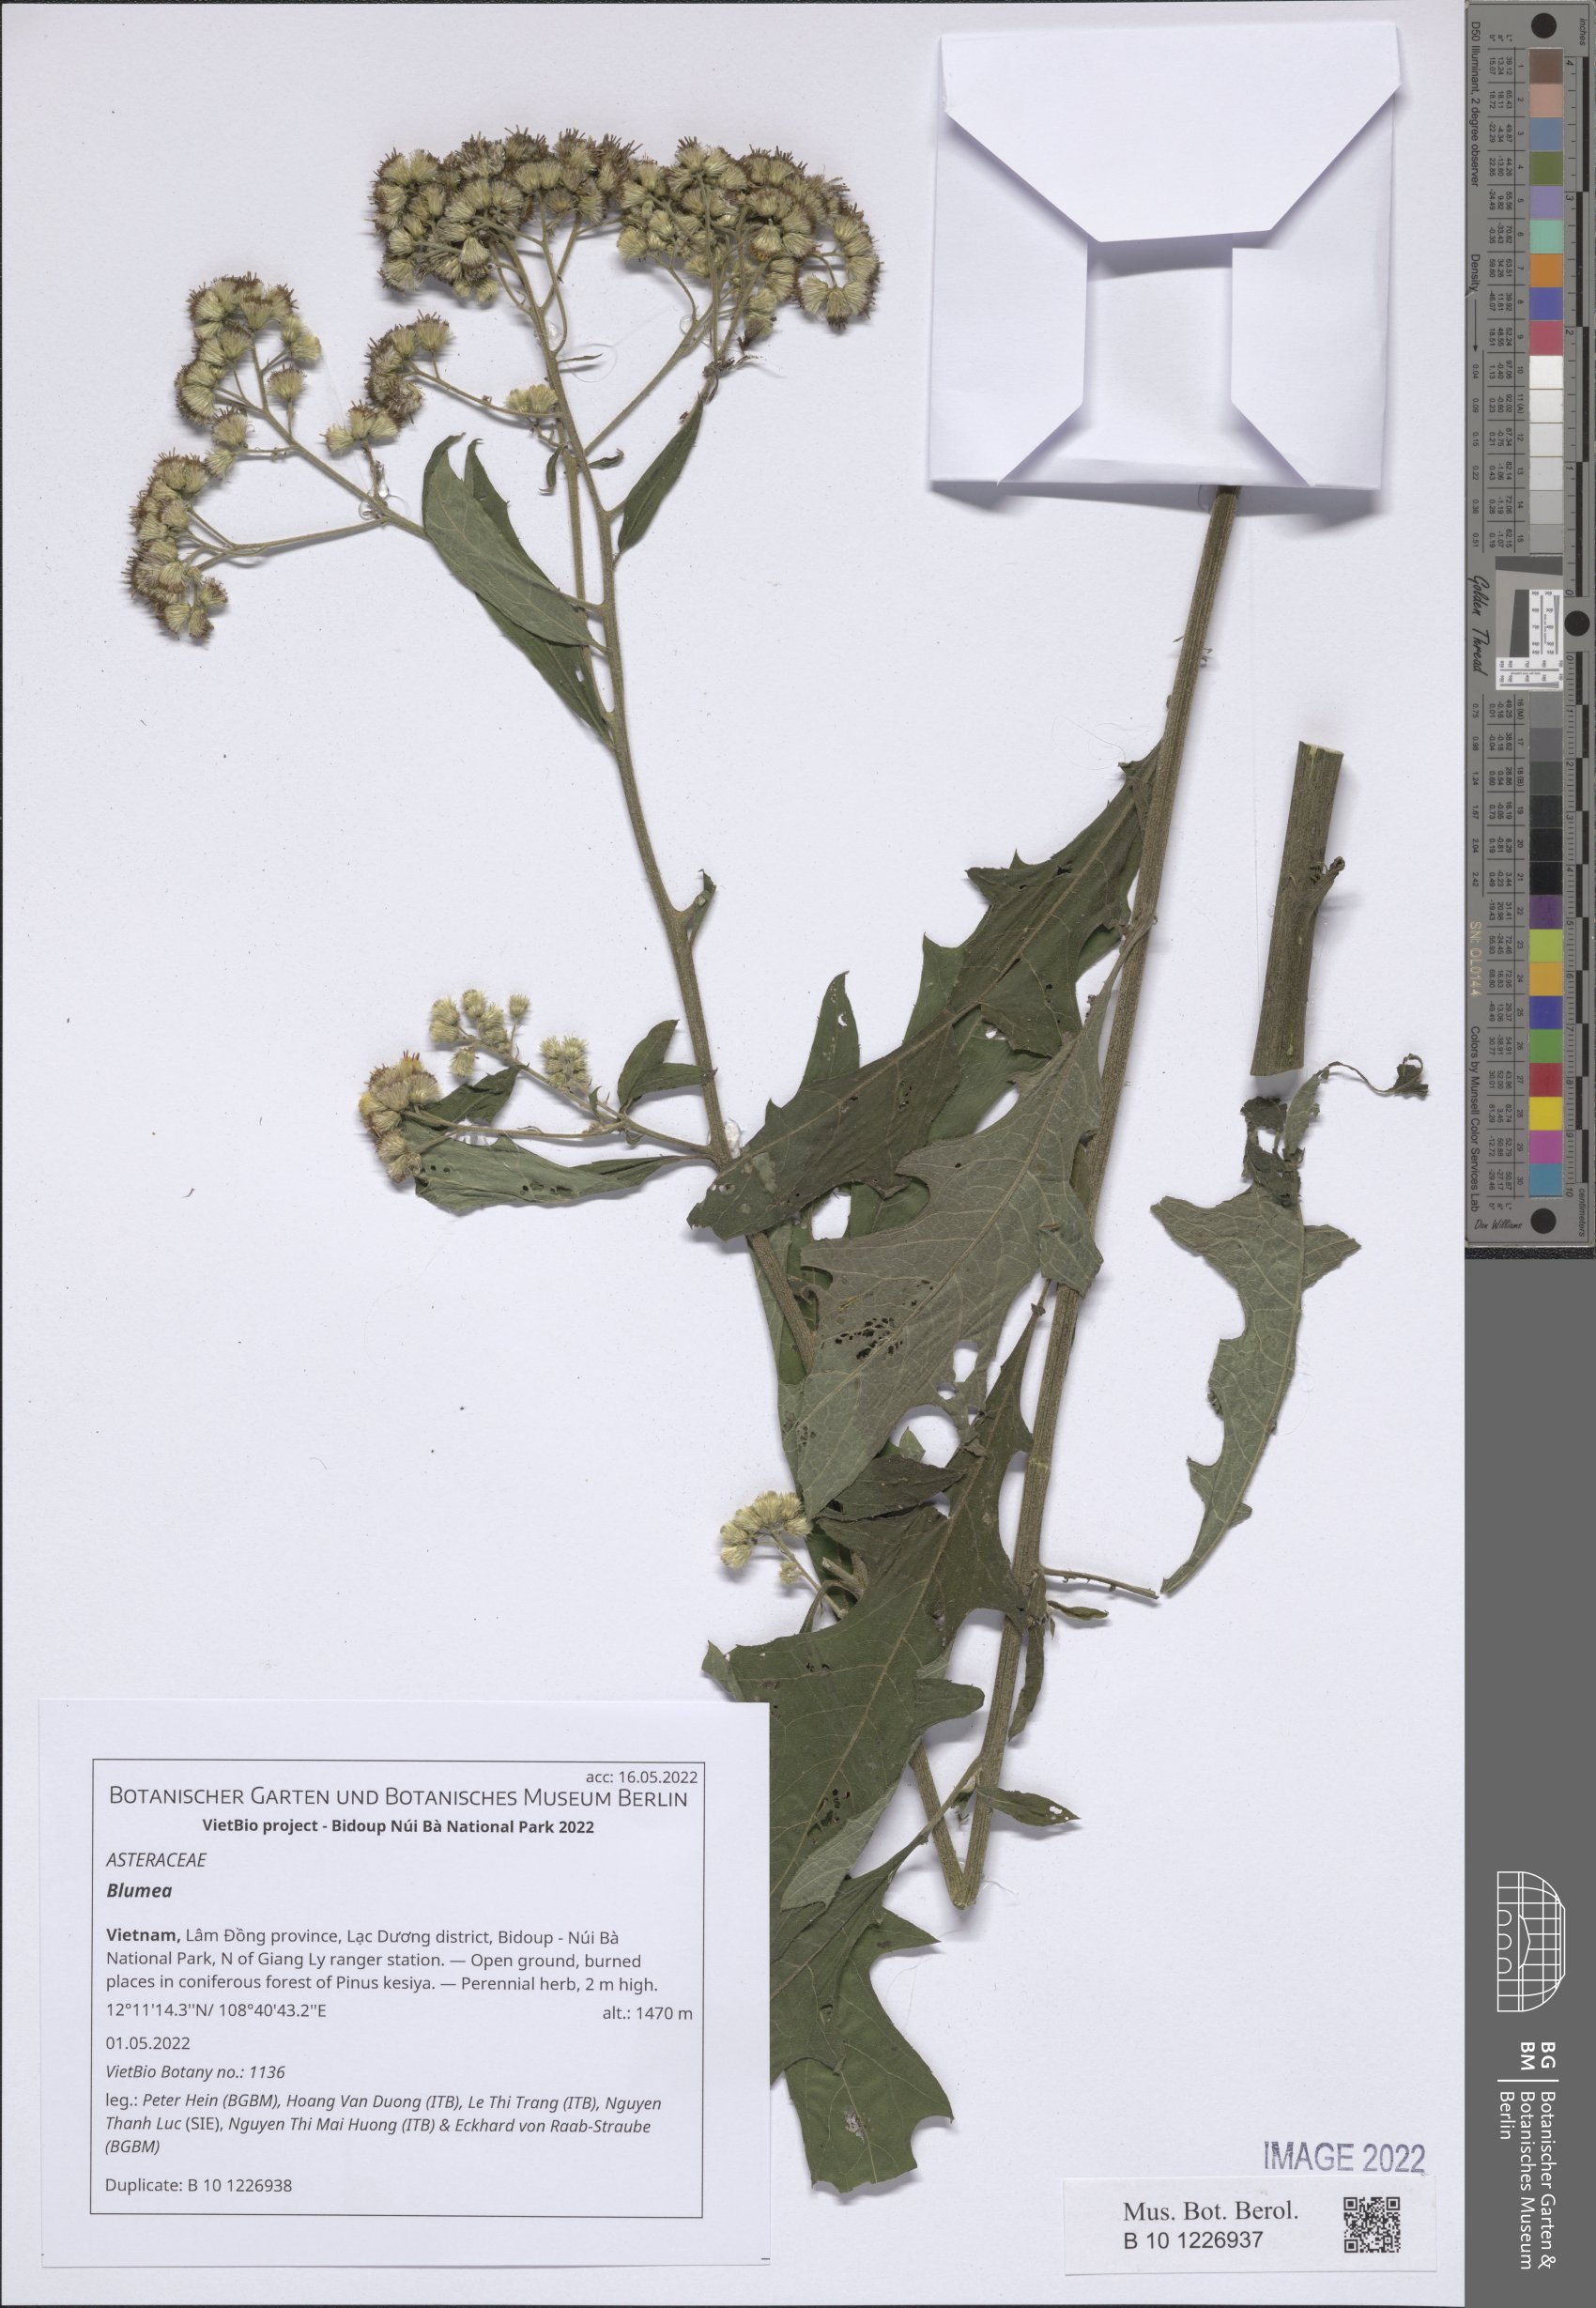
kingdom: Plantae
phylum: Tracheophyta
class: Magnoliopsida
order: Asterales
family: Asteraceae
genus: Blumea
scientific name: Blumea
